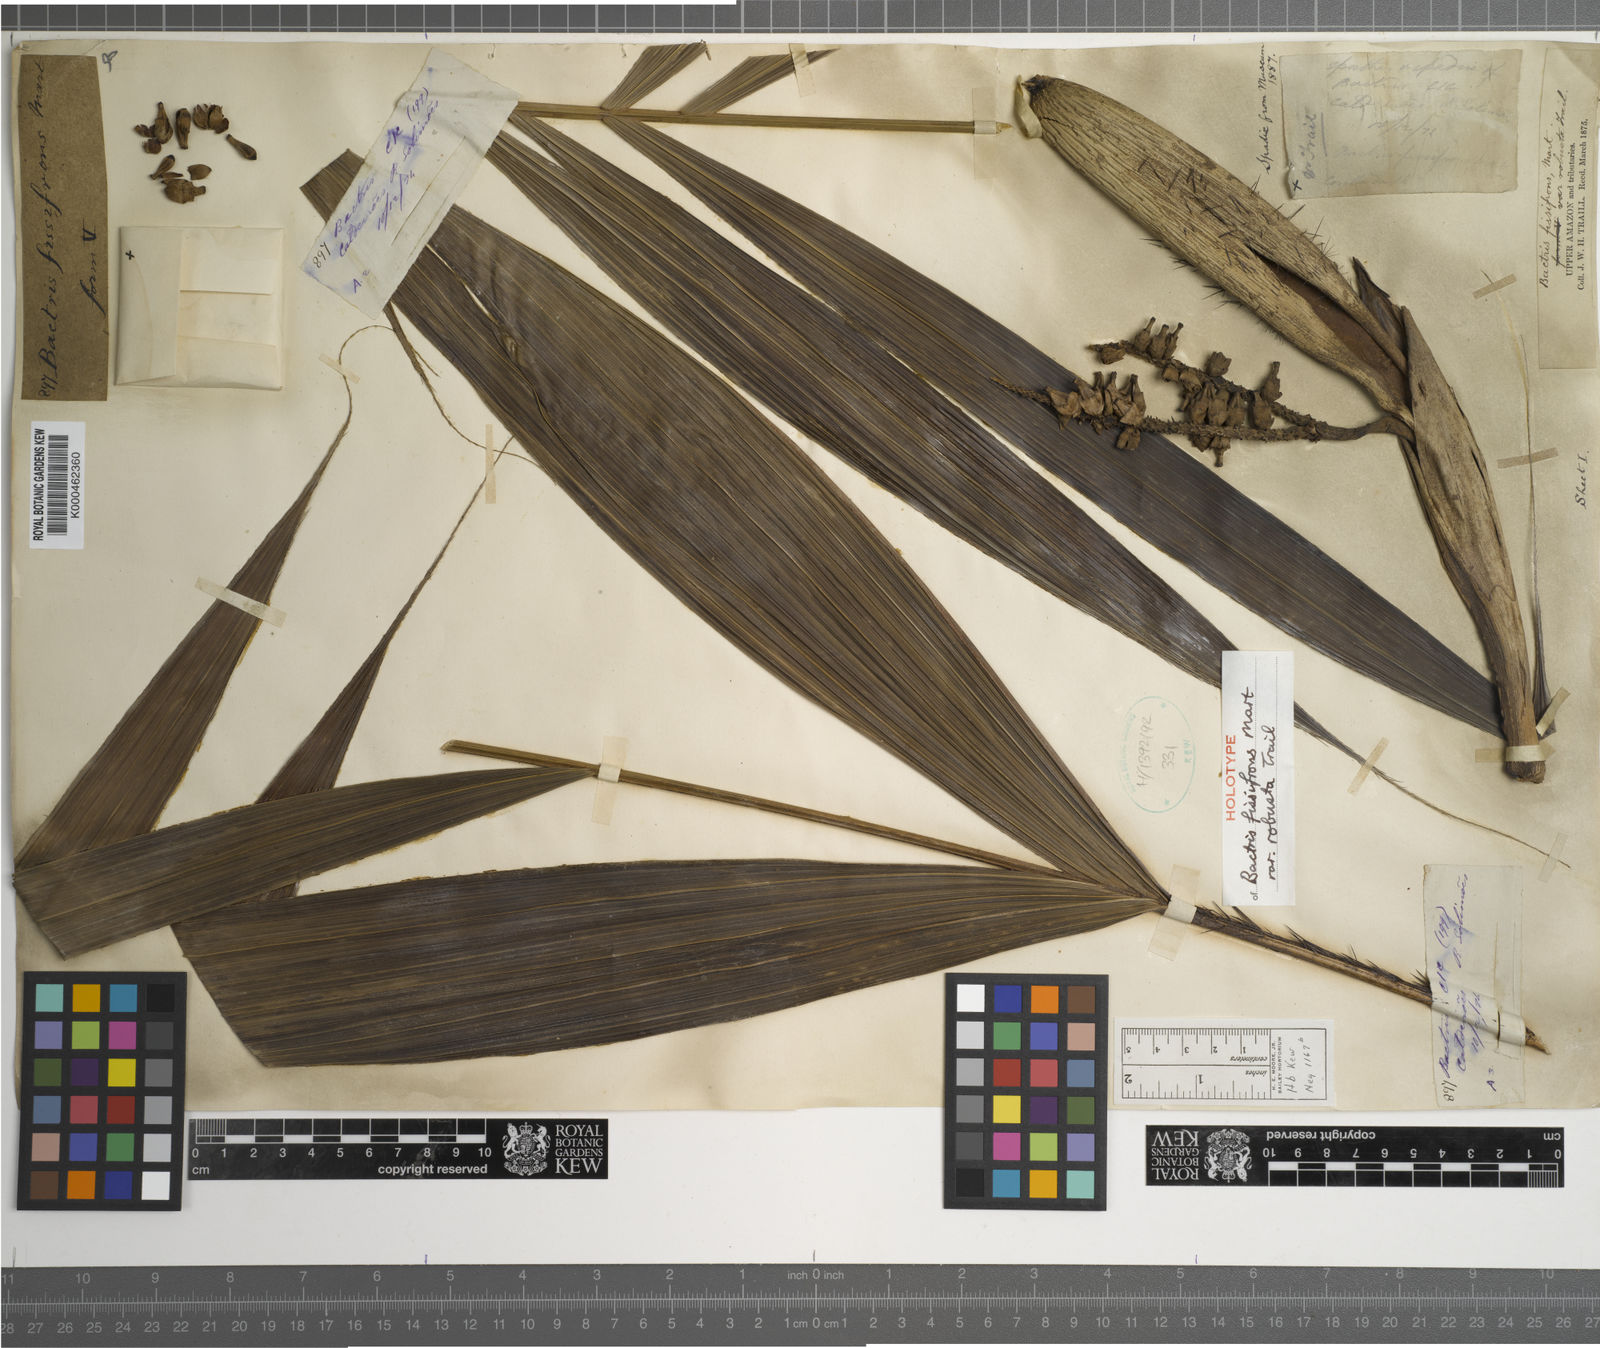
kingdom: Plantae
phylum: Tracheophyta
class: Liliopsida
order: Arecales
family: Arecaceae
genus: Bactris
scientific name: Bactris fissifrons
